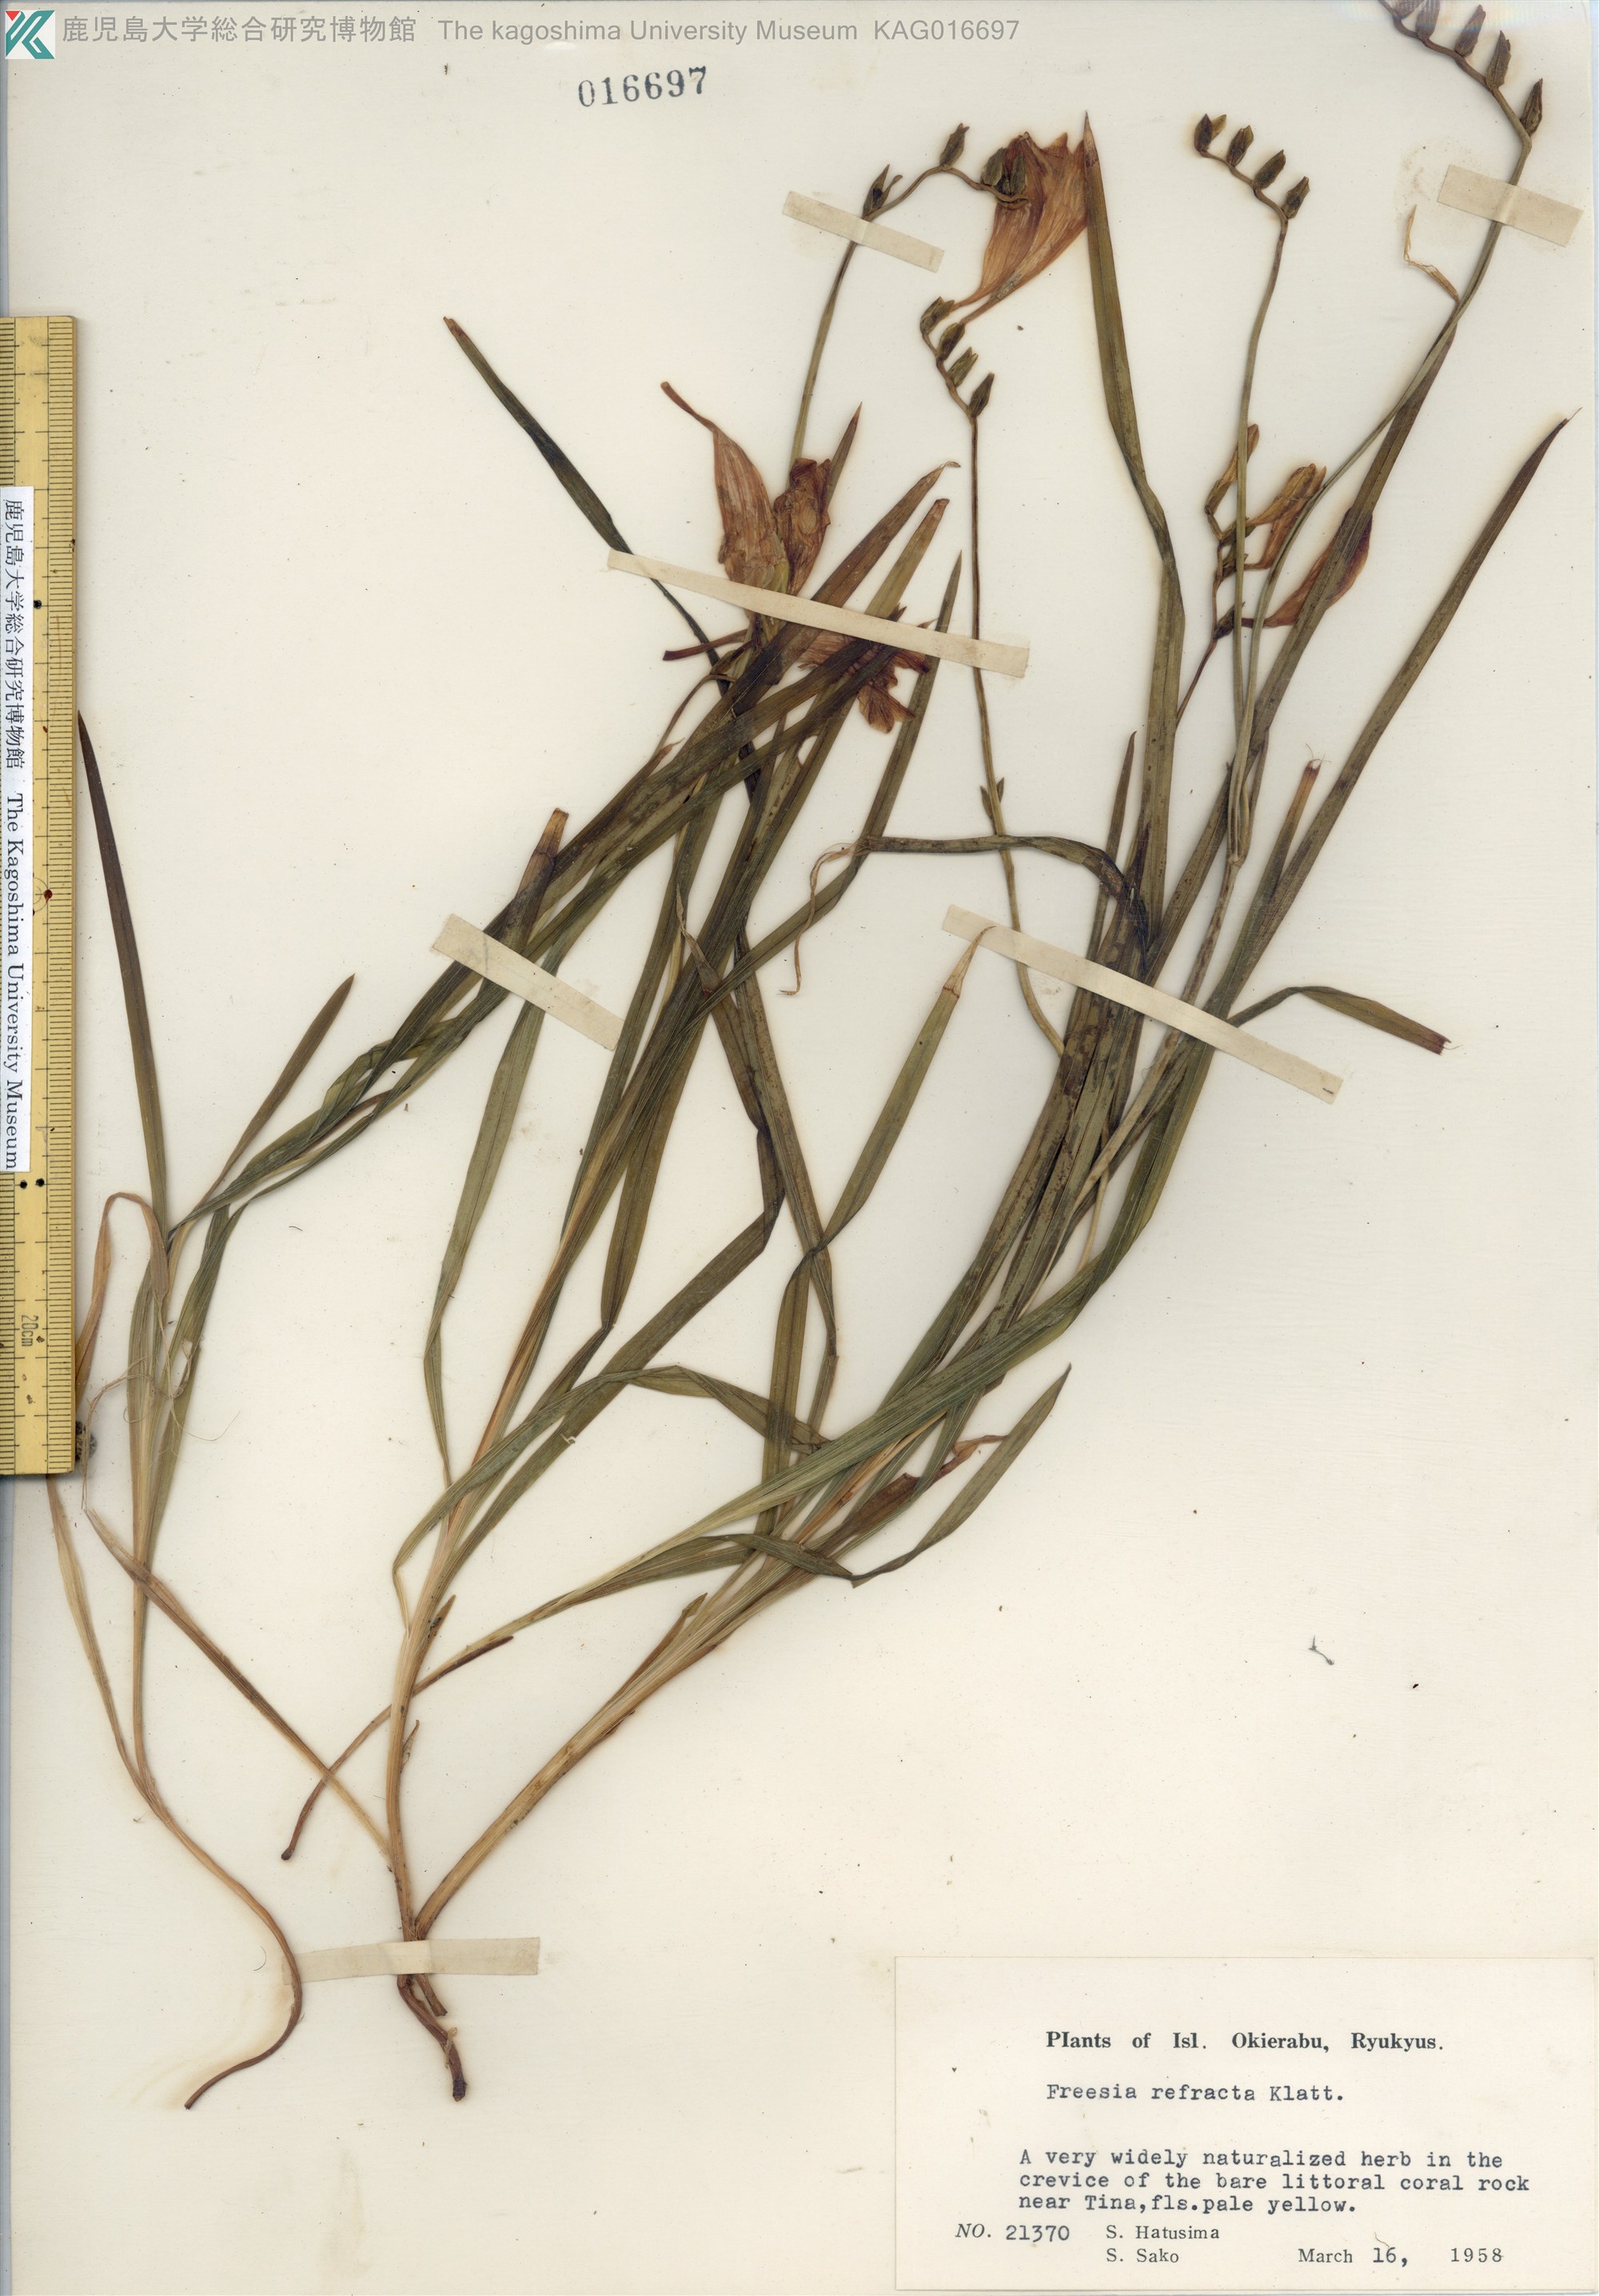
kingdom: Plantae
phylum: Tracheophyta
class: Liliopsida
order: Asparagales
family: Iridaceae
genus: Freesia
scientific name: Freesia refracta
